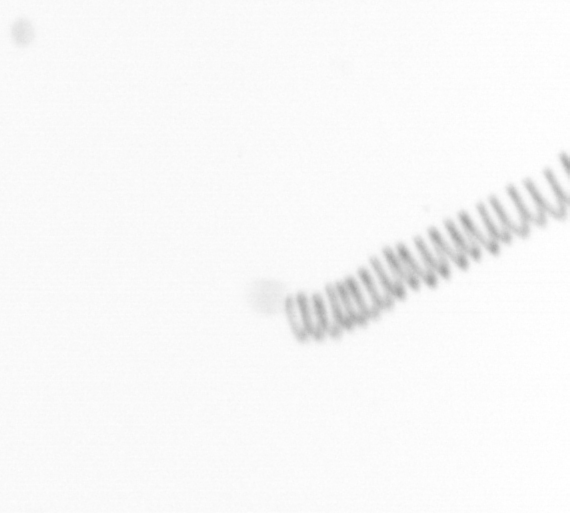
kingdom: Chromista
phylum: Ochrophyta
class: Bacillariophyceae
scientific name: Bacillariophyceae
